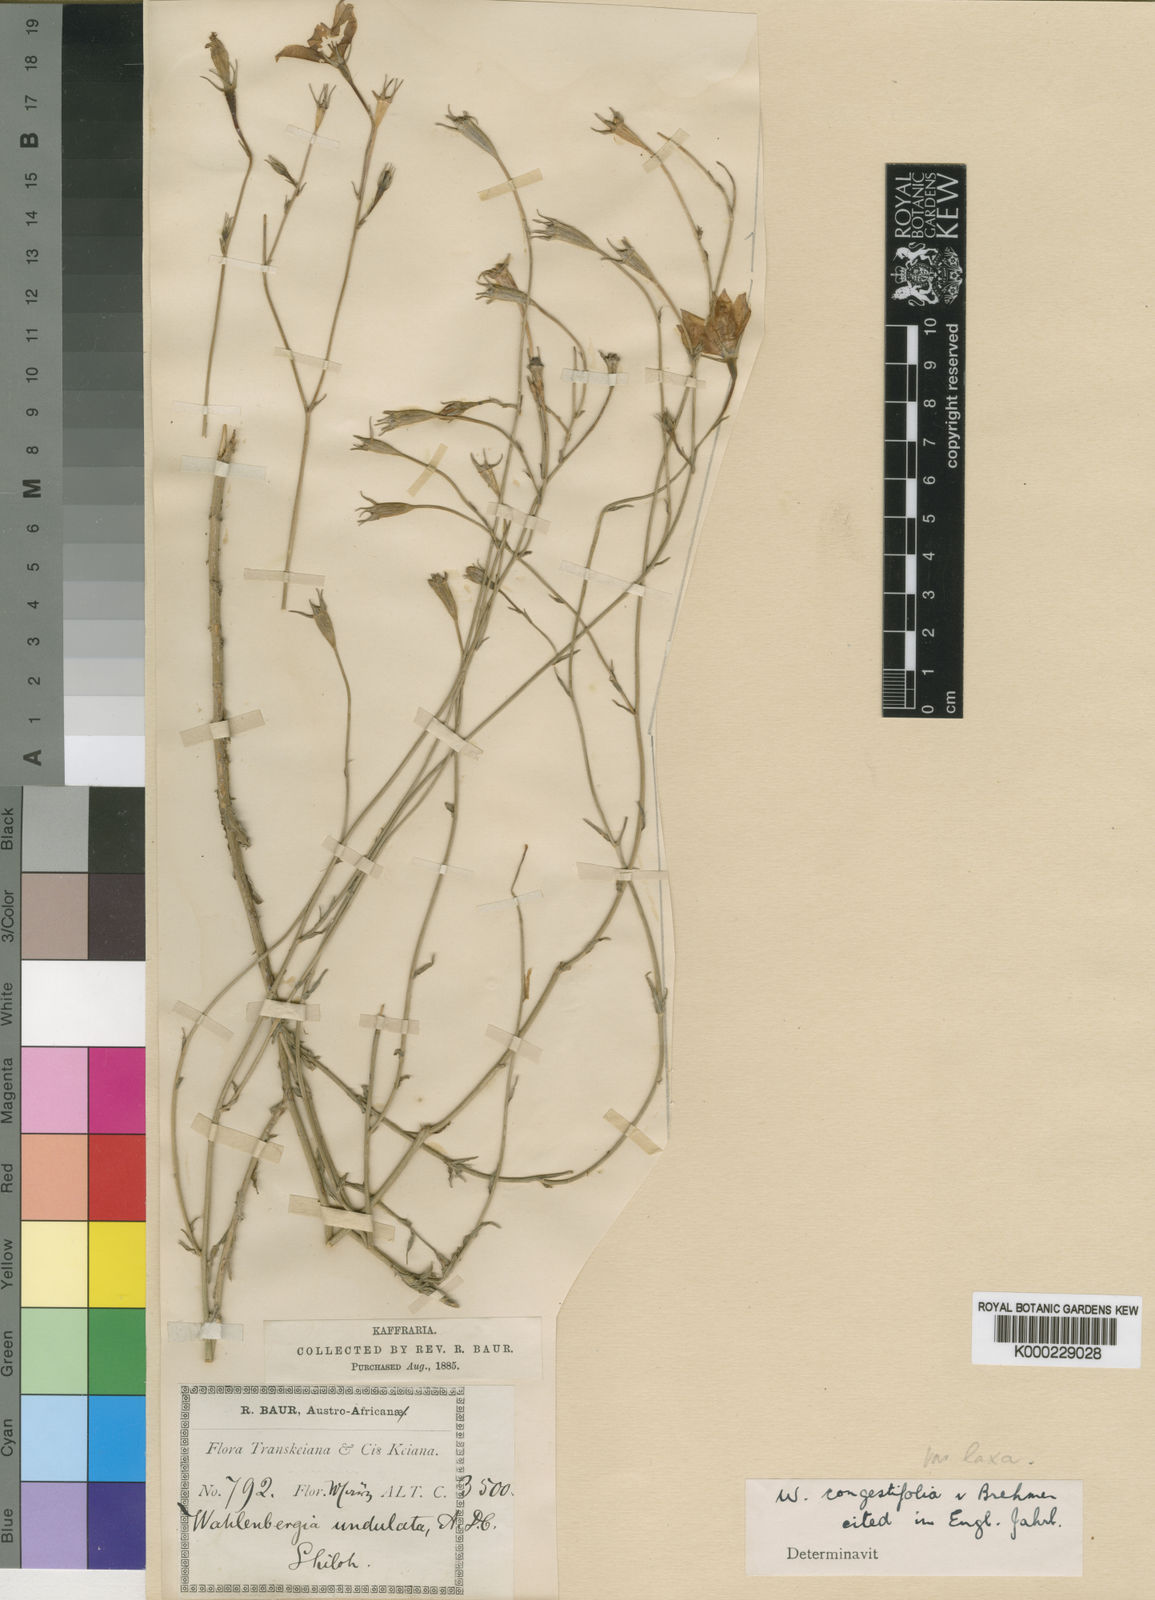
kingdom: Plantae
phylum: Tracheophyta
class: Magnoliopsida
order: Asterales
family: Campanulaceae
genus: Wahlenbergia
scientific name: Wahlenbergia congestifolia
